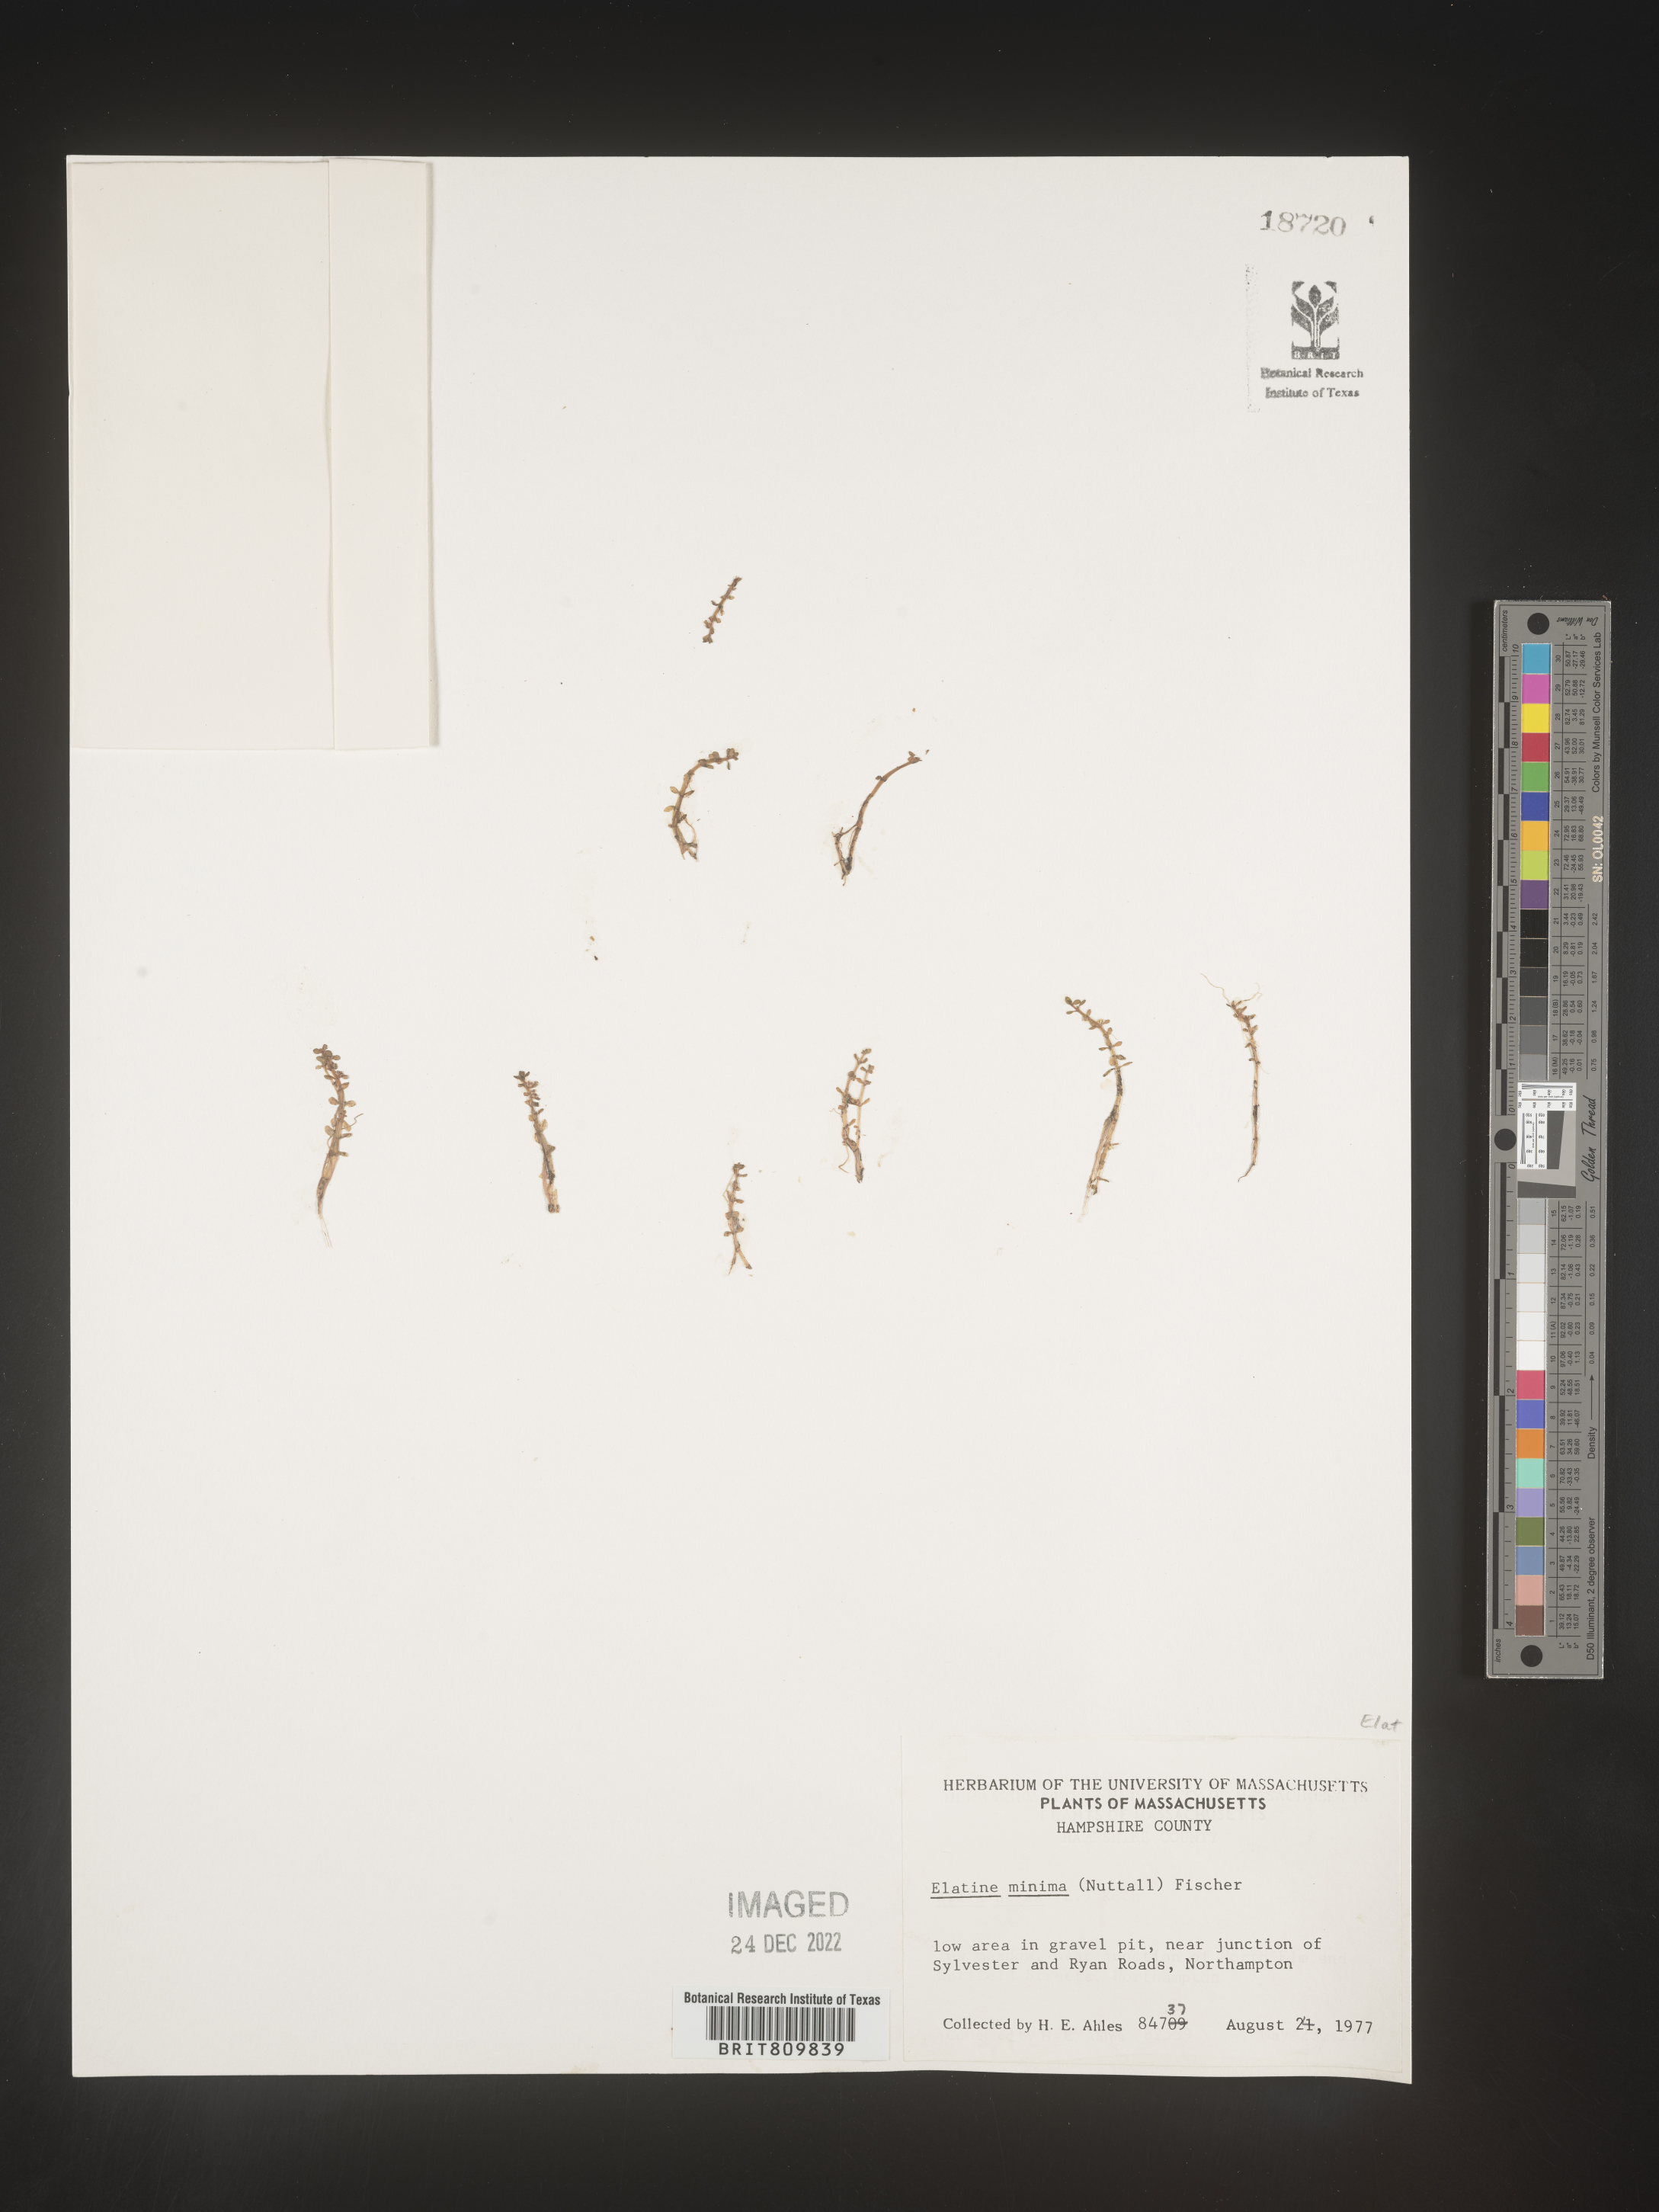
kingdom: Plantae
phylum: Tracheophyta
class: Magnoliopsida
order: Malpighiales
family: Elatinaceae
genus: Elatine
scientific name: Elatine
